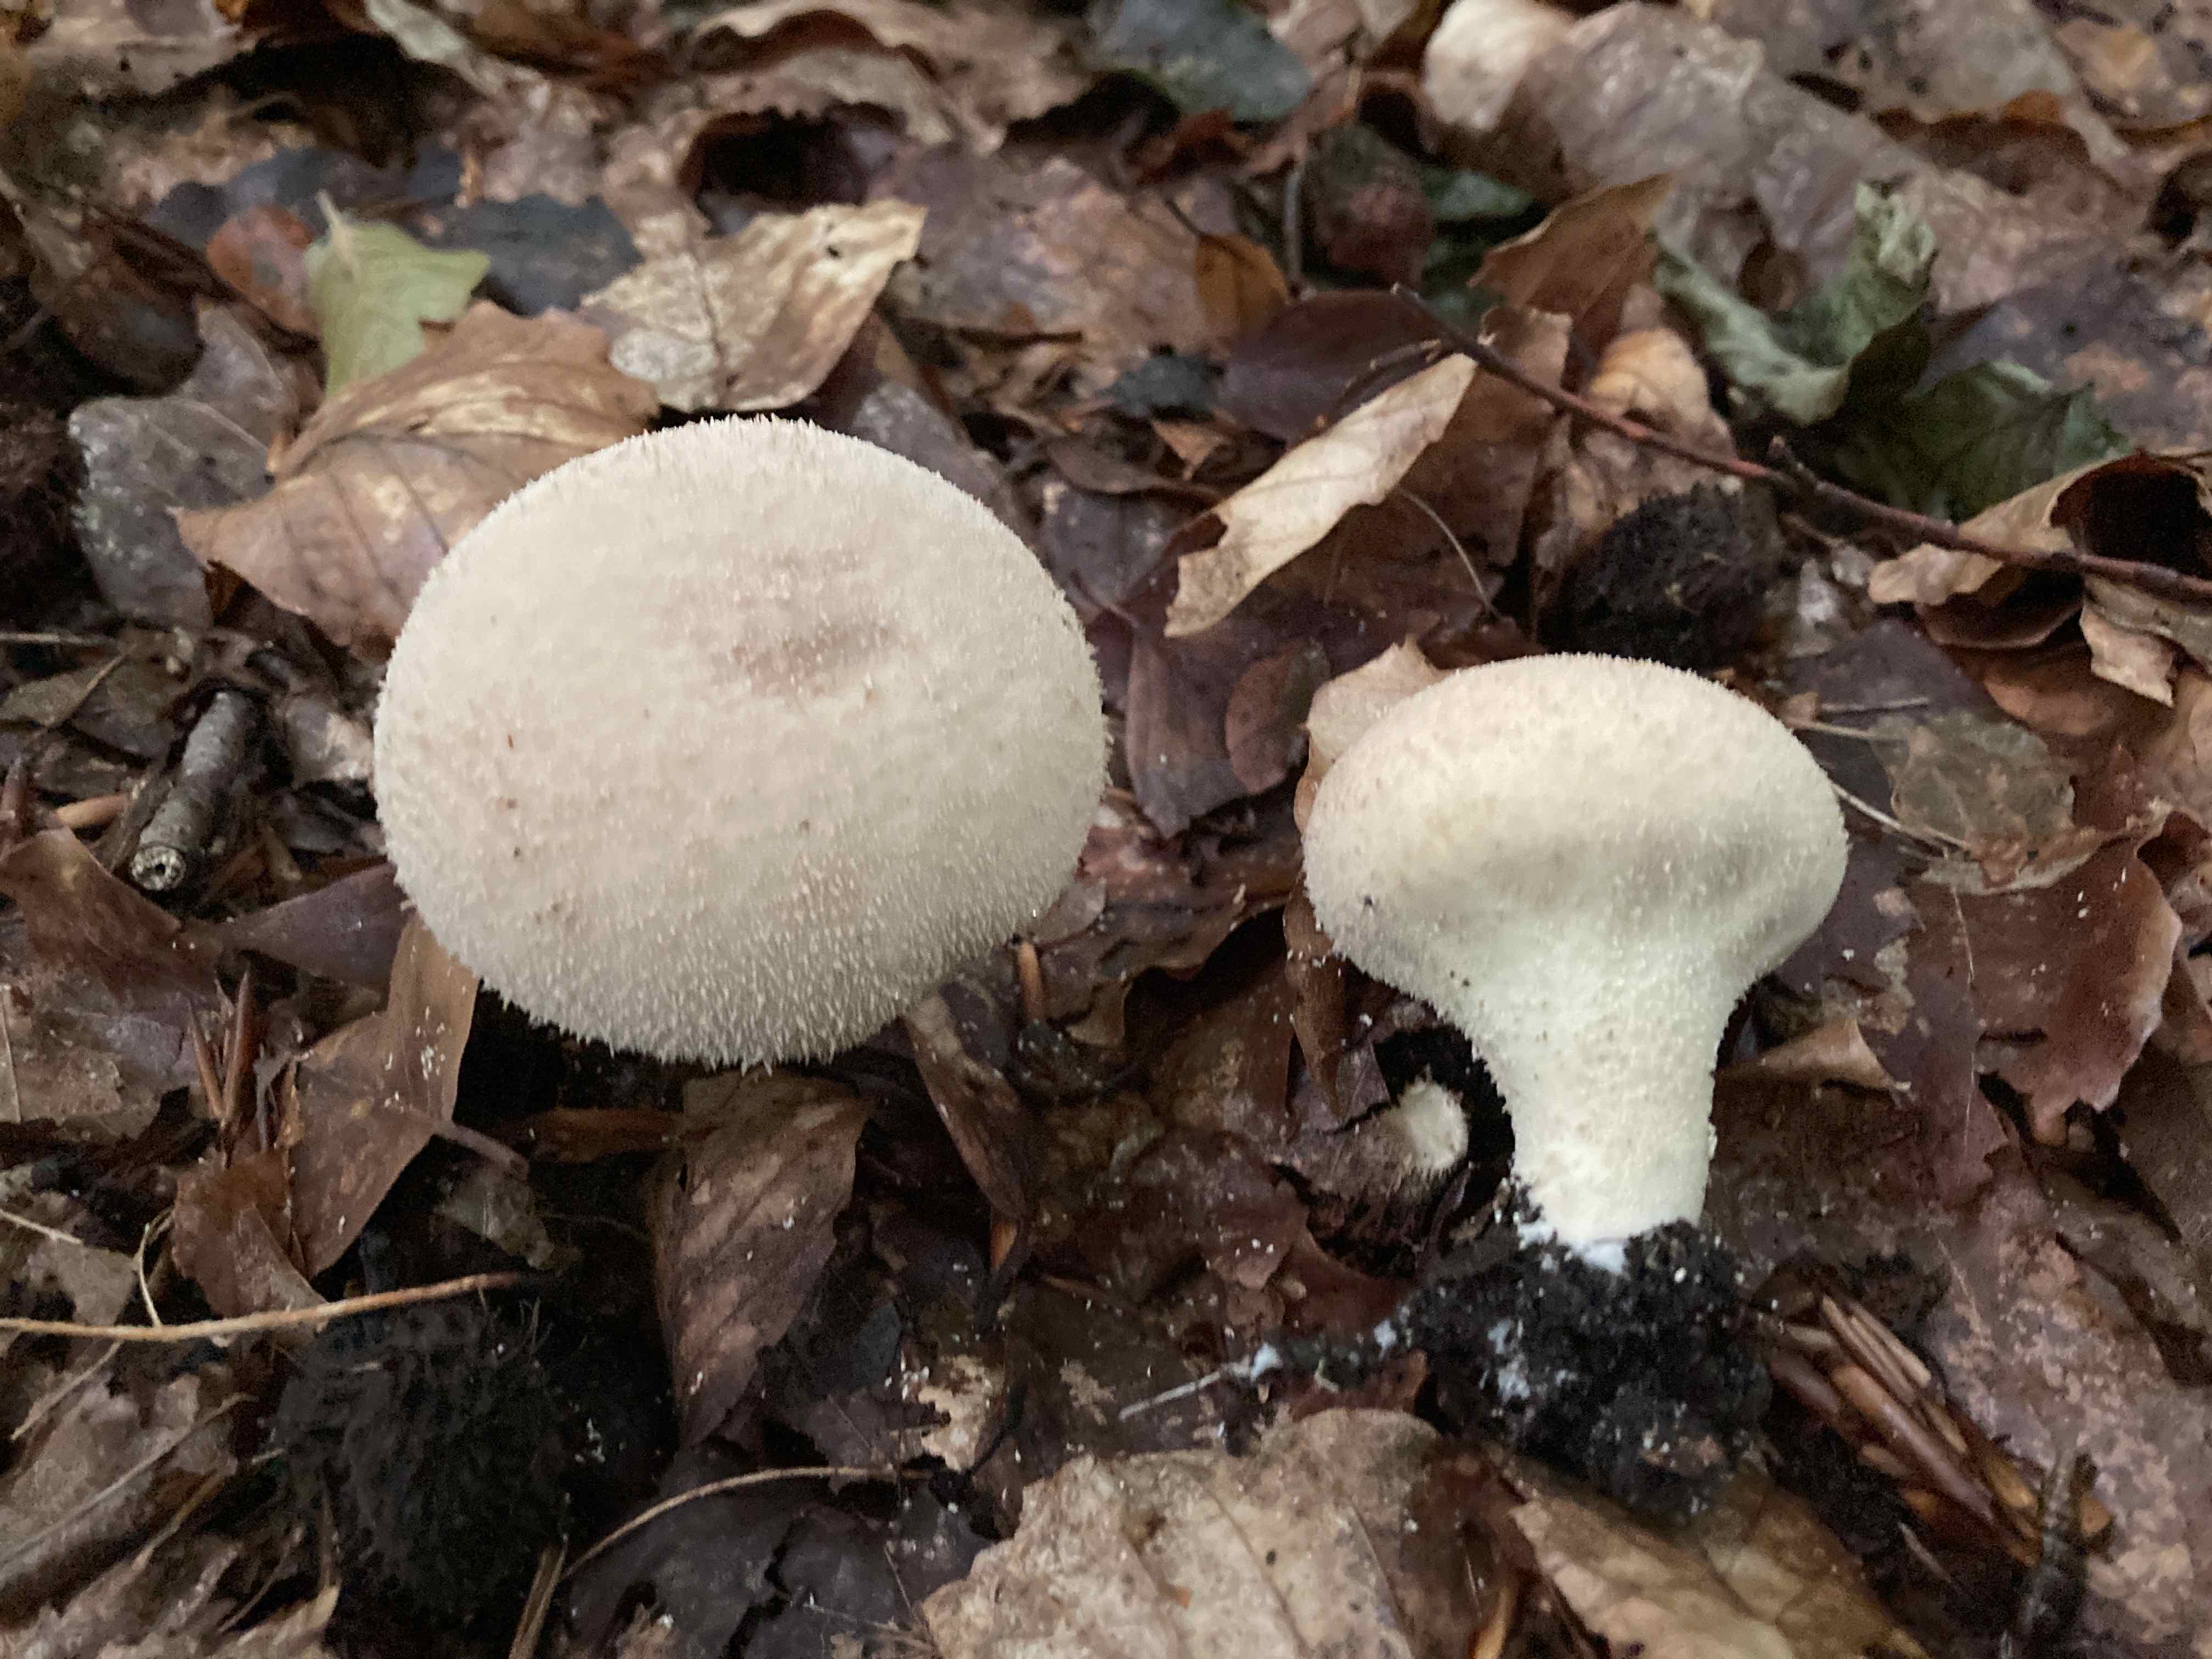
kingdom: Fungi
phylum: Basidiomycota
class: Agaricomycetes
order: Agaricales
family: Lycoperdaceae
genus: Lycoperdon
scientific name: Lycoperdon molle
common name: skov-støvbold
